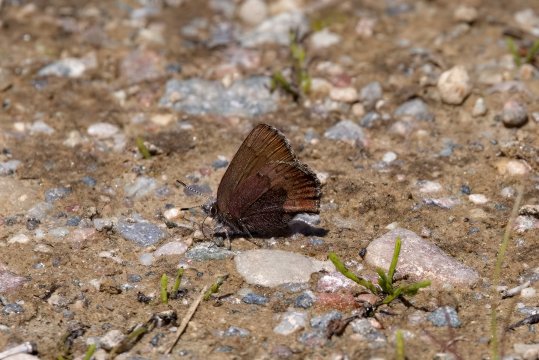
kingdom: Animalia
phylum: Arthropoda
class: Insecta
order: Lepidoptera
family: Lycaenidae
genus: Incisalia
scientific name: Incisalia irioides
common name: Brown Elfin
